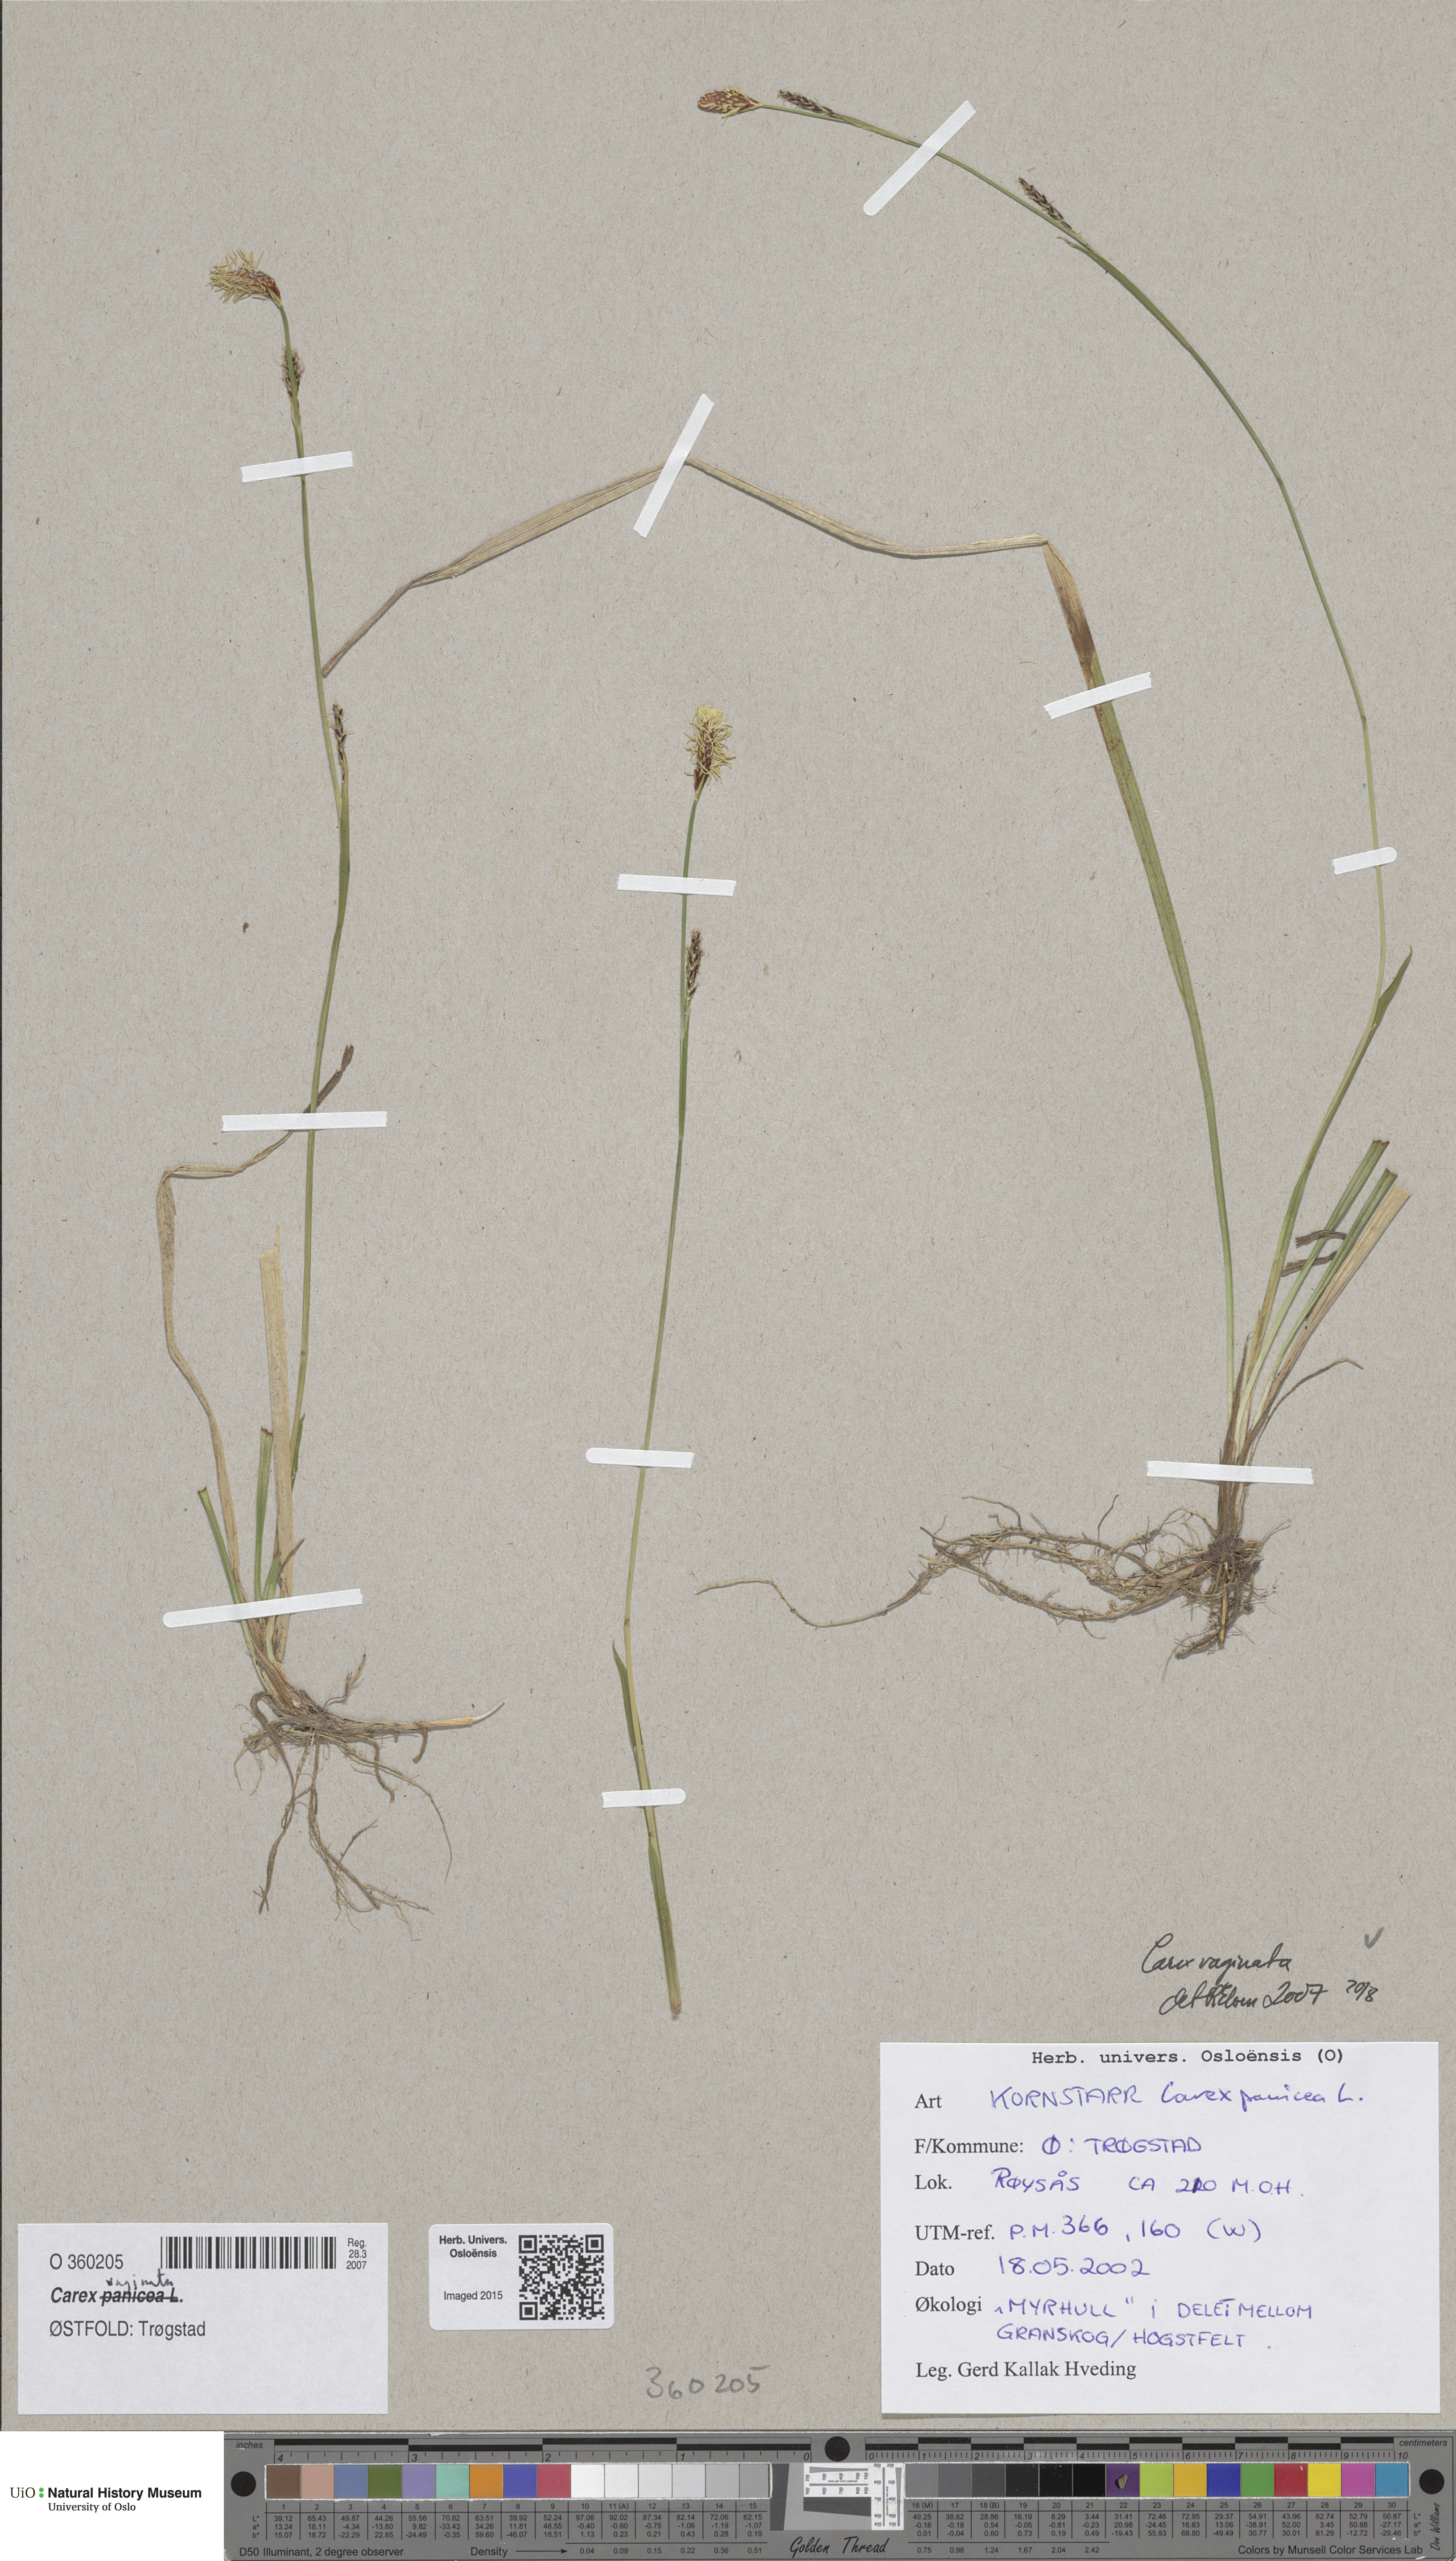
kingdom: Plantae
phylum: Tracheophyta
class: Liliopsida
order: Poales
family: Cyperaceae
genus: Carex
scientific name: Carex vaginata
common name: Sheathed sedge
